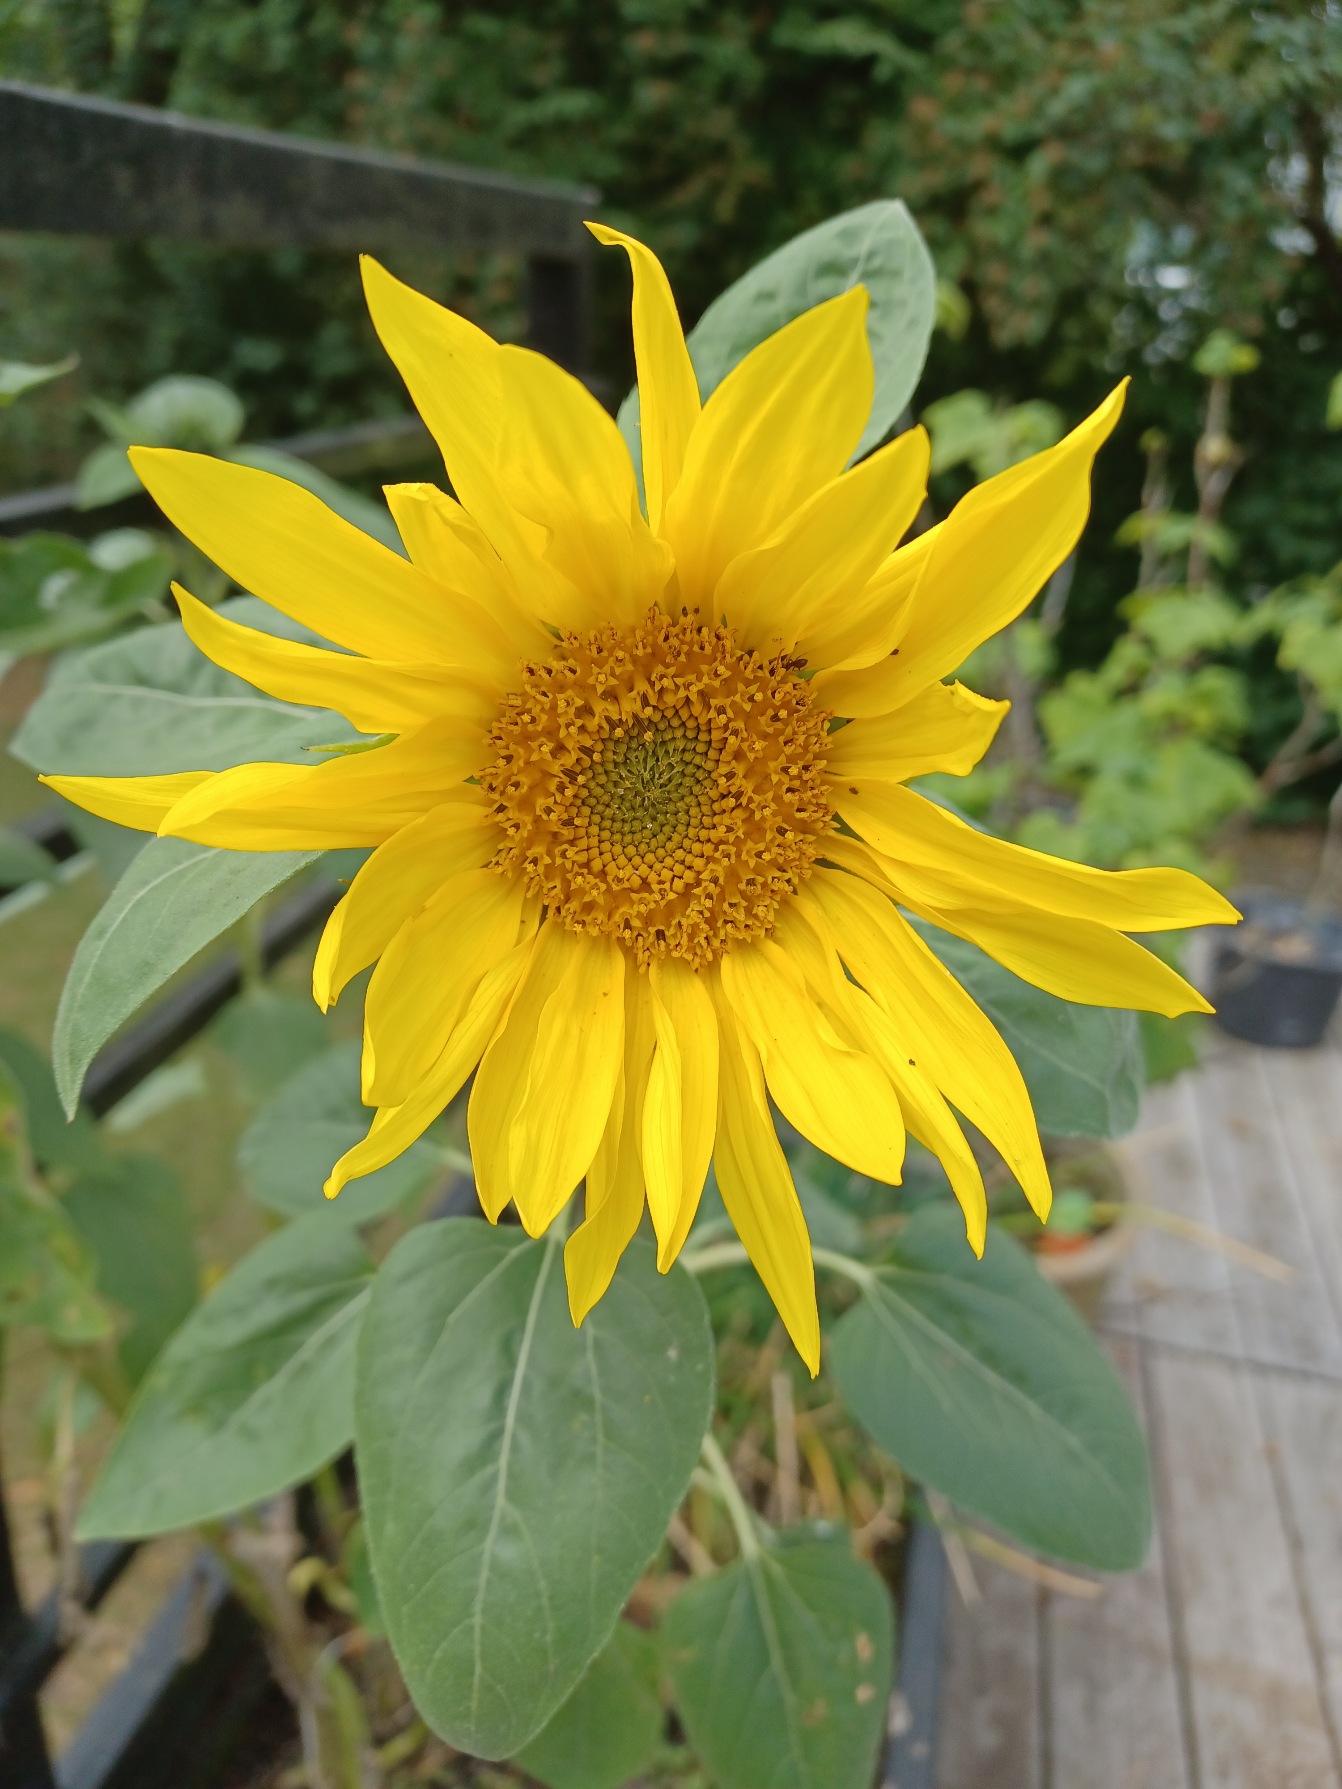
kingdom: Plantae
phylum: Tracheophyta
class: Magnoliopsida
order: Asterales
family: Asteraceae
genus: Helianthus
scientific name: Helianthus annuus
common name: Solsikke
